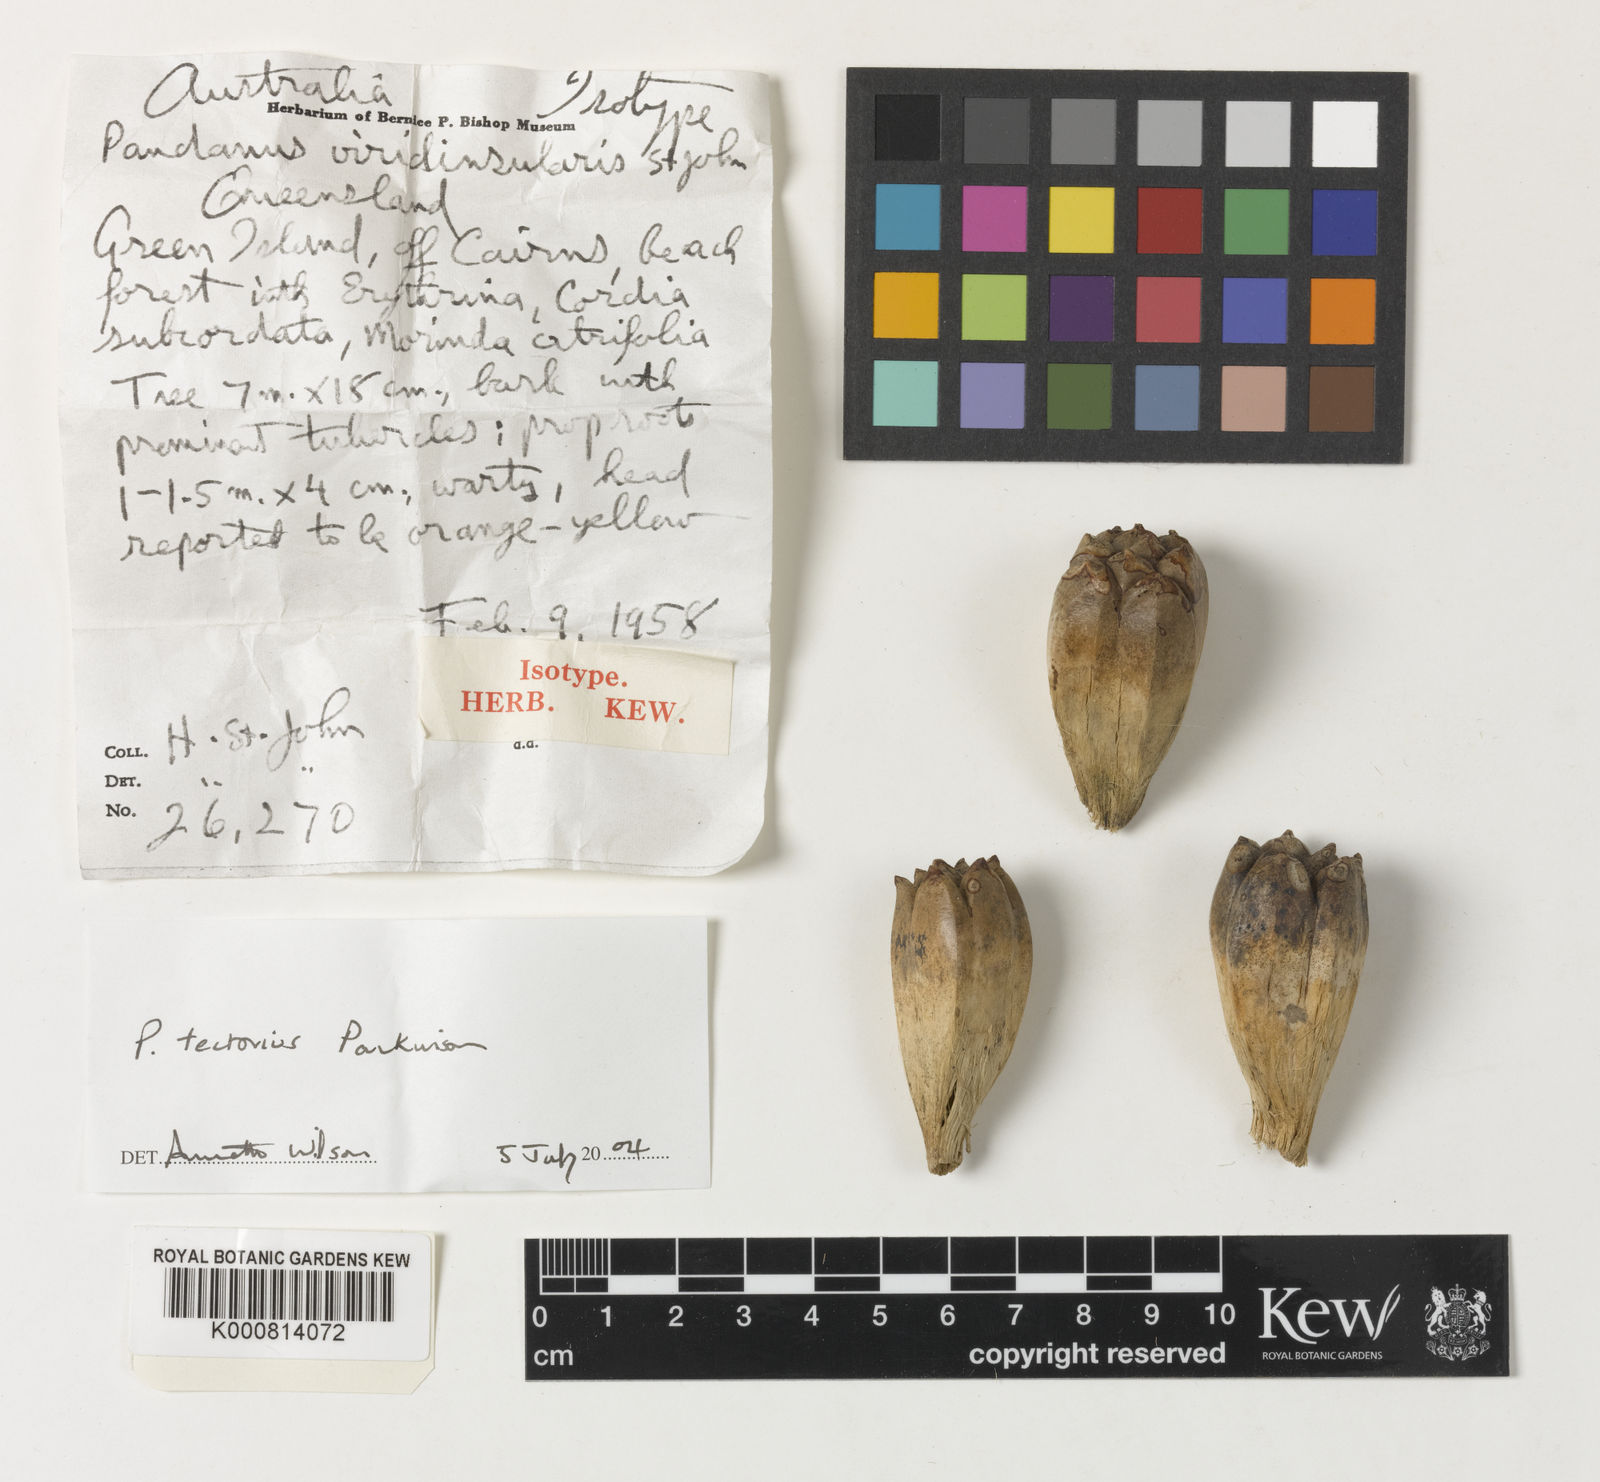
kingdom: Plantae
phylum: Tracheophyta
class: Liliopsida
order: Pandanales
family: Pandanaceae
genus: Pandanus
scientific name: Pandanus
